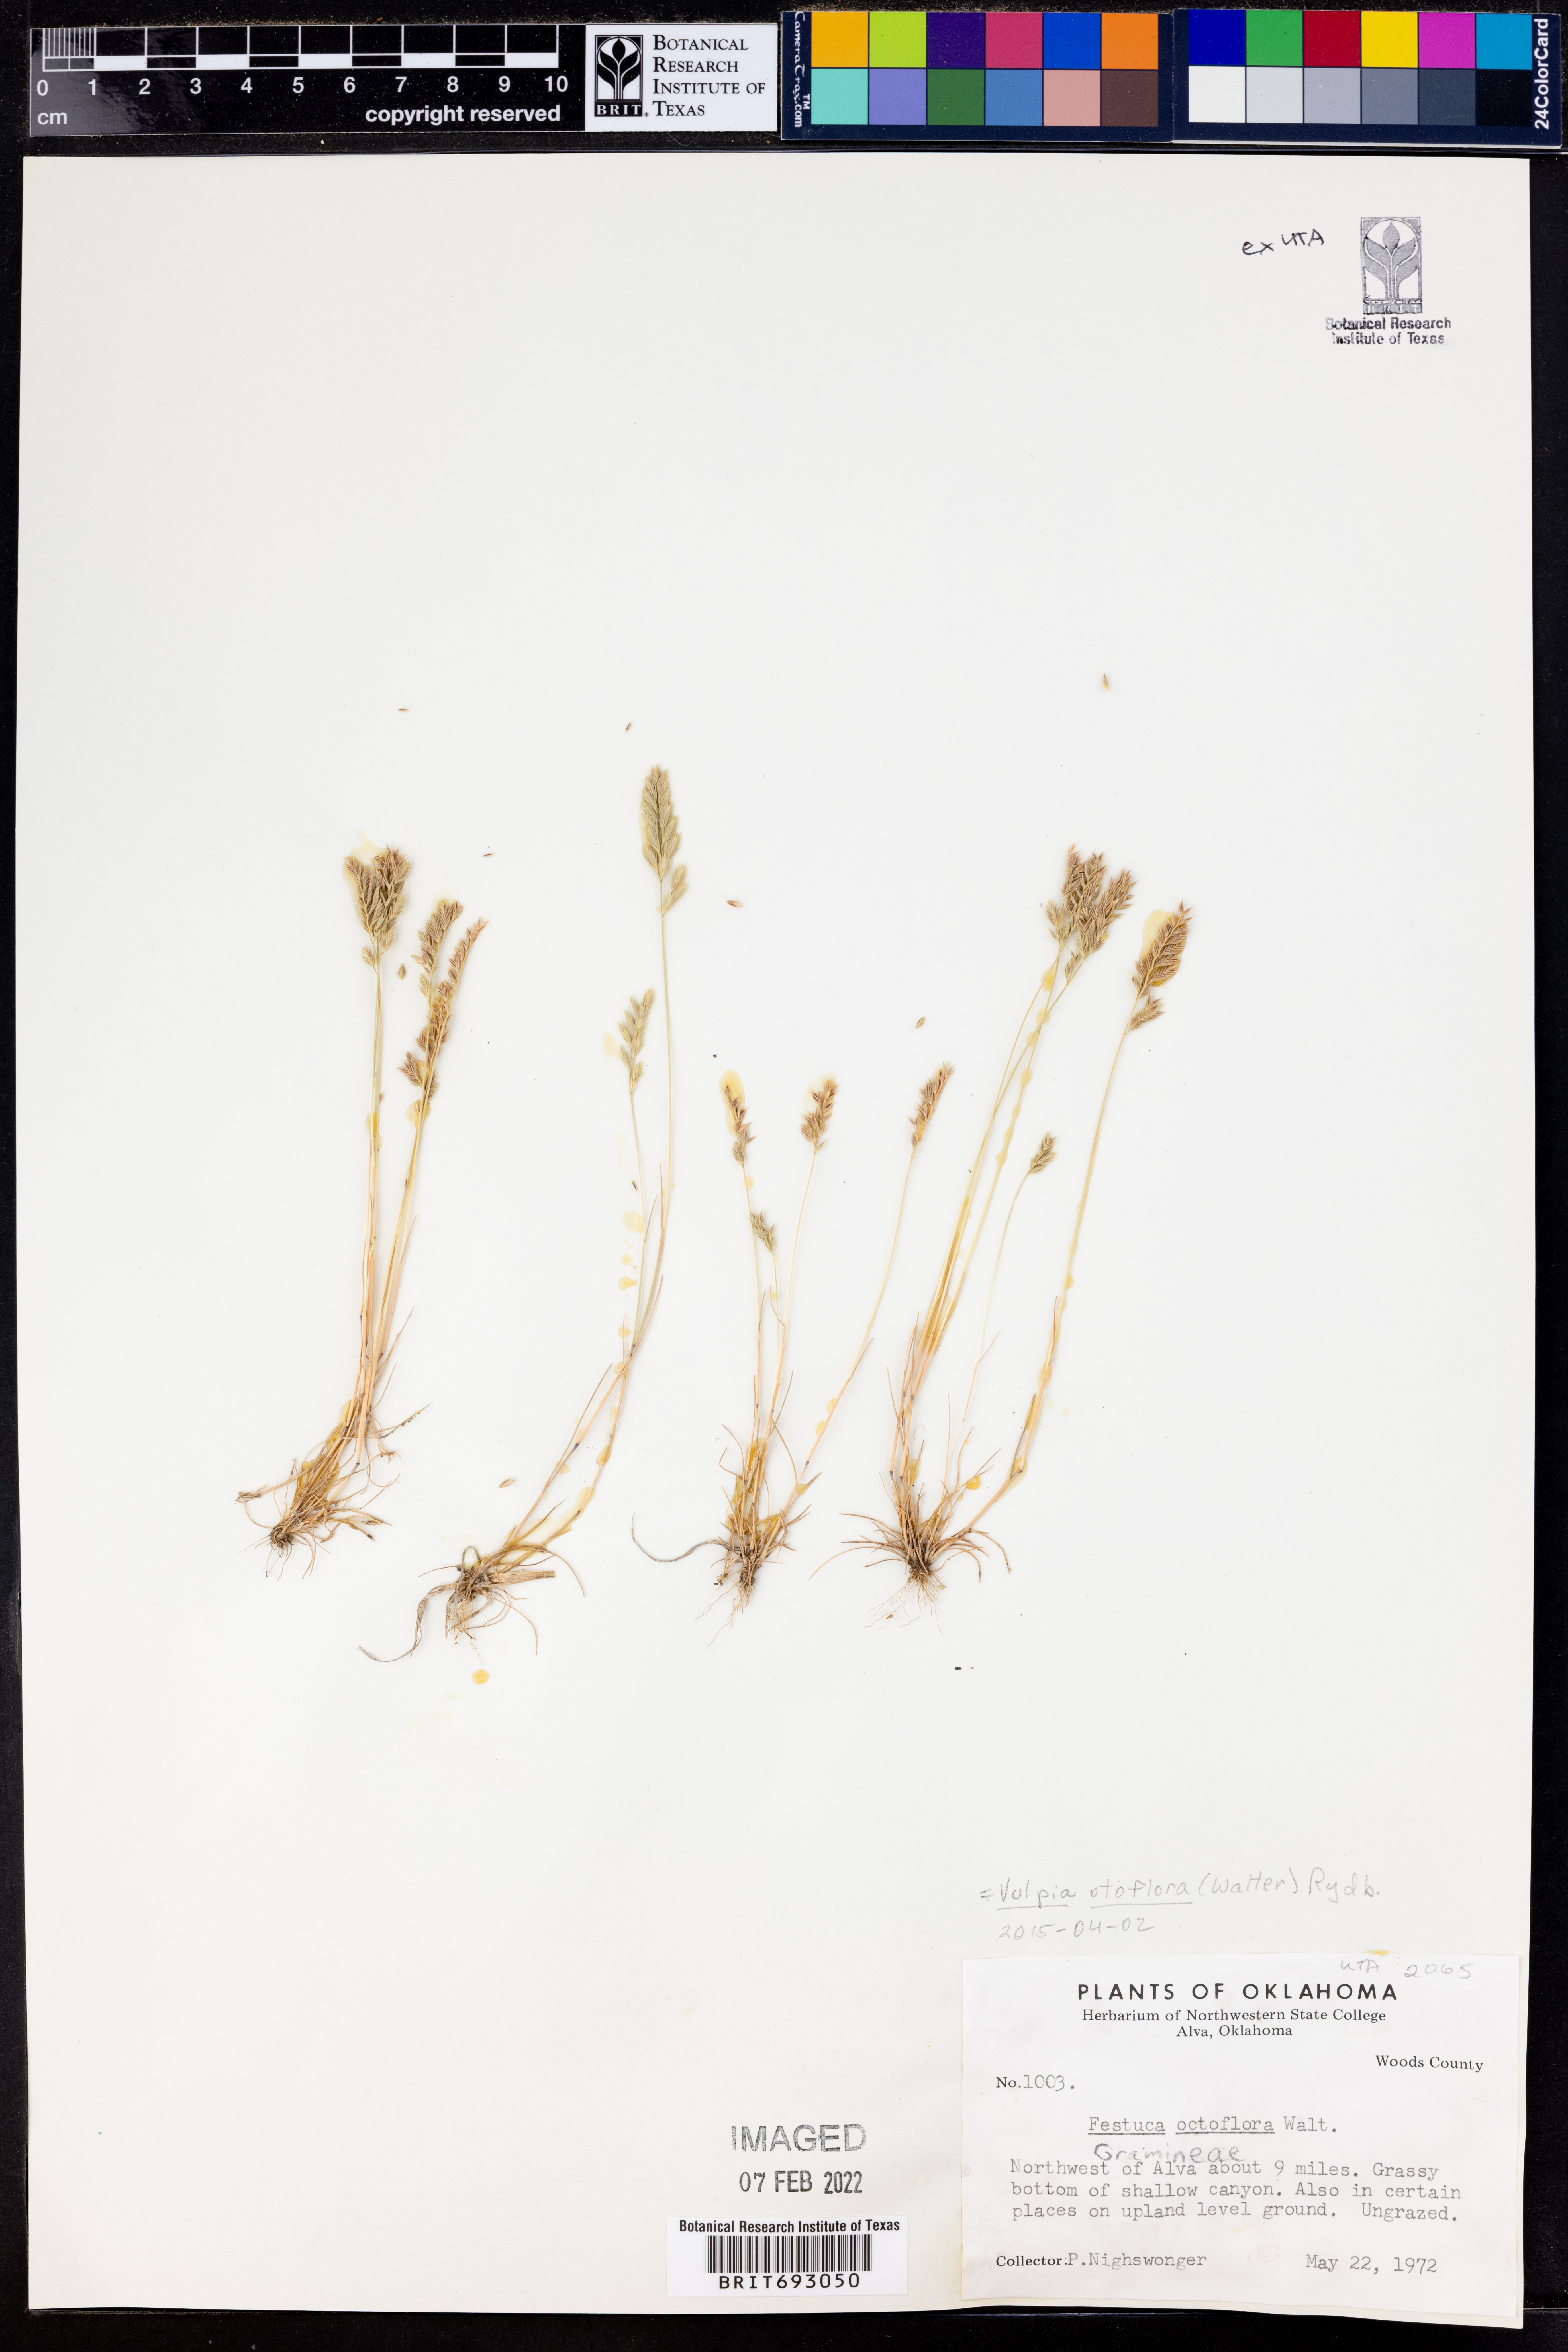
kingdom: Plantae
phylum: Tracheophyta
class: Liliopsida
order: Poales
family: Poaceae
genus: Festuca
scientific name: Festuca octoflora
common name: Sixweeks grass
